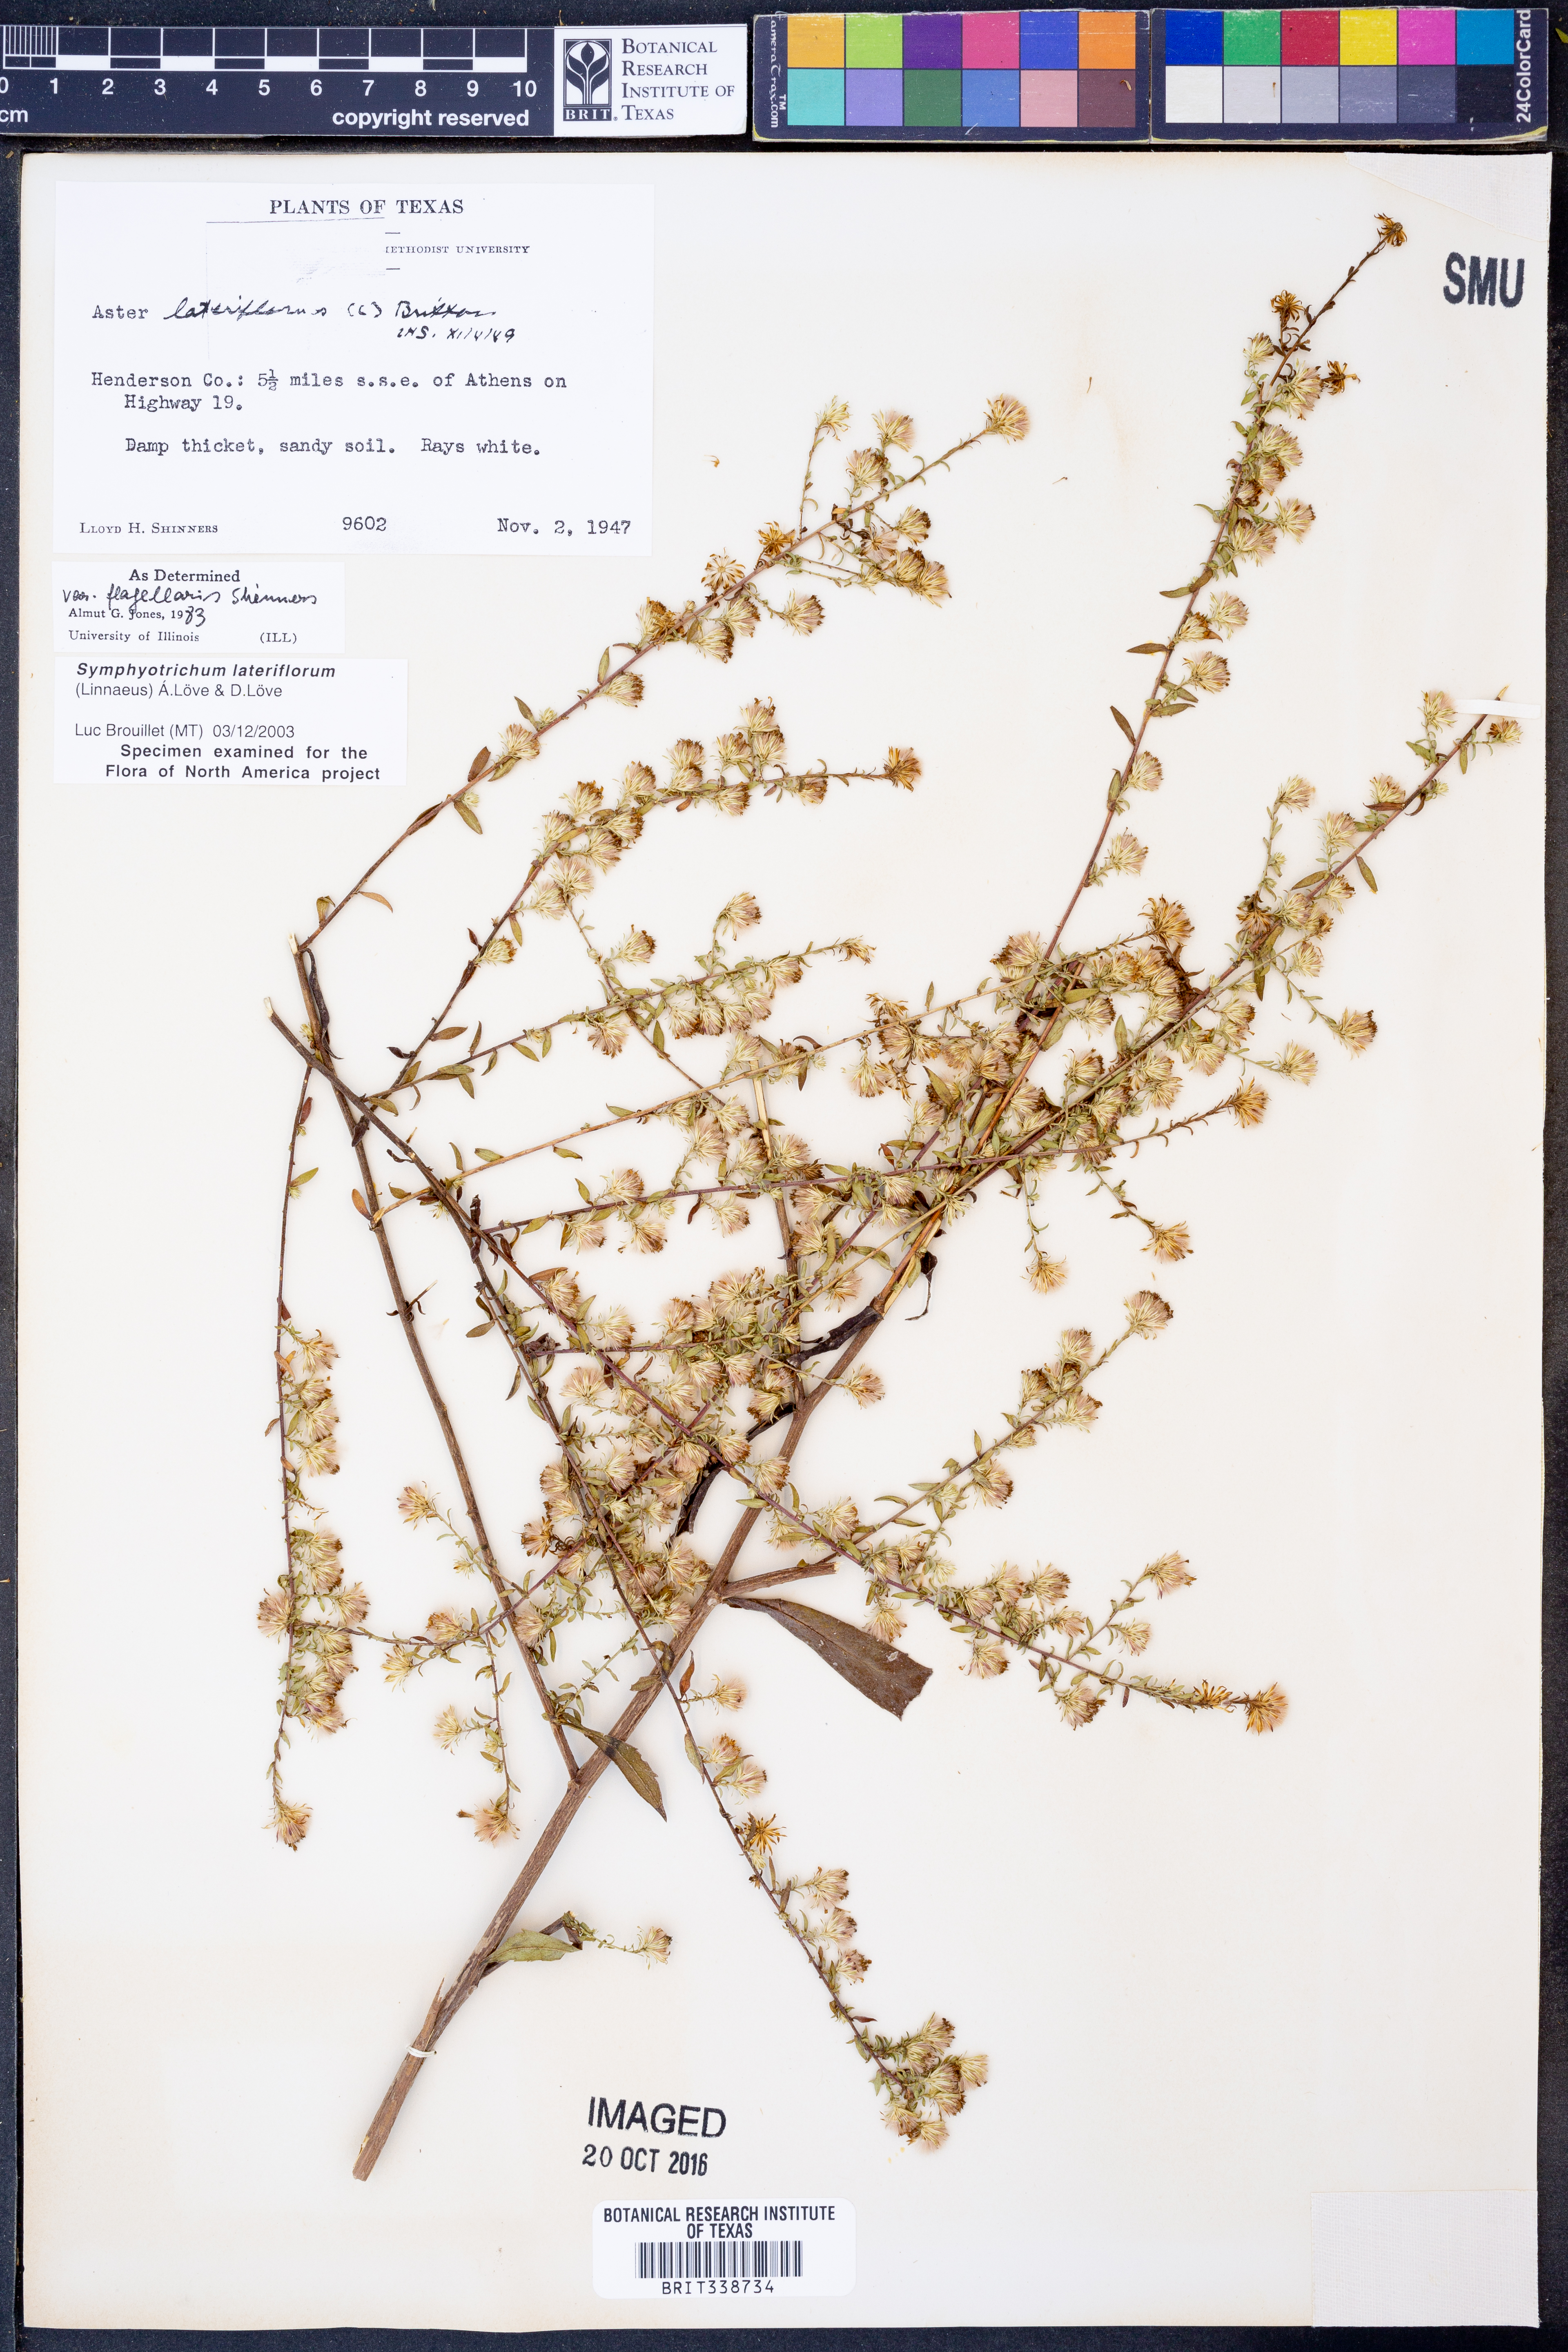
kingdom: Plantae
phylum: Tracheophyta
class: Magnoliopsida
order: Asterales
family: Asteraceae
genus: Symphyotrichum
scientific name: Symphyotrichum lateriflorum
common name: Calico aster
